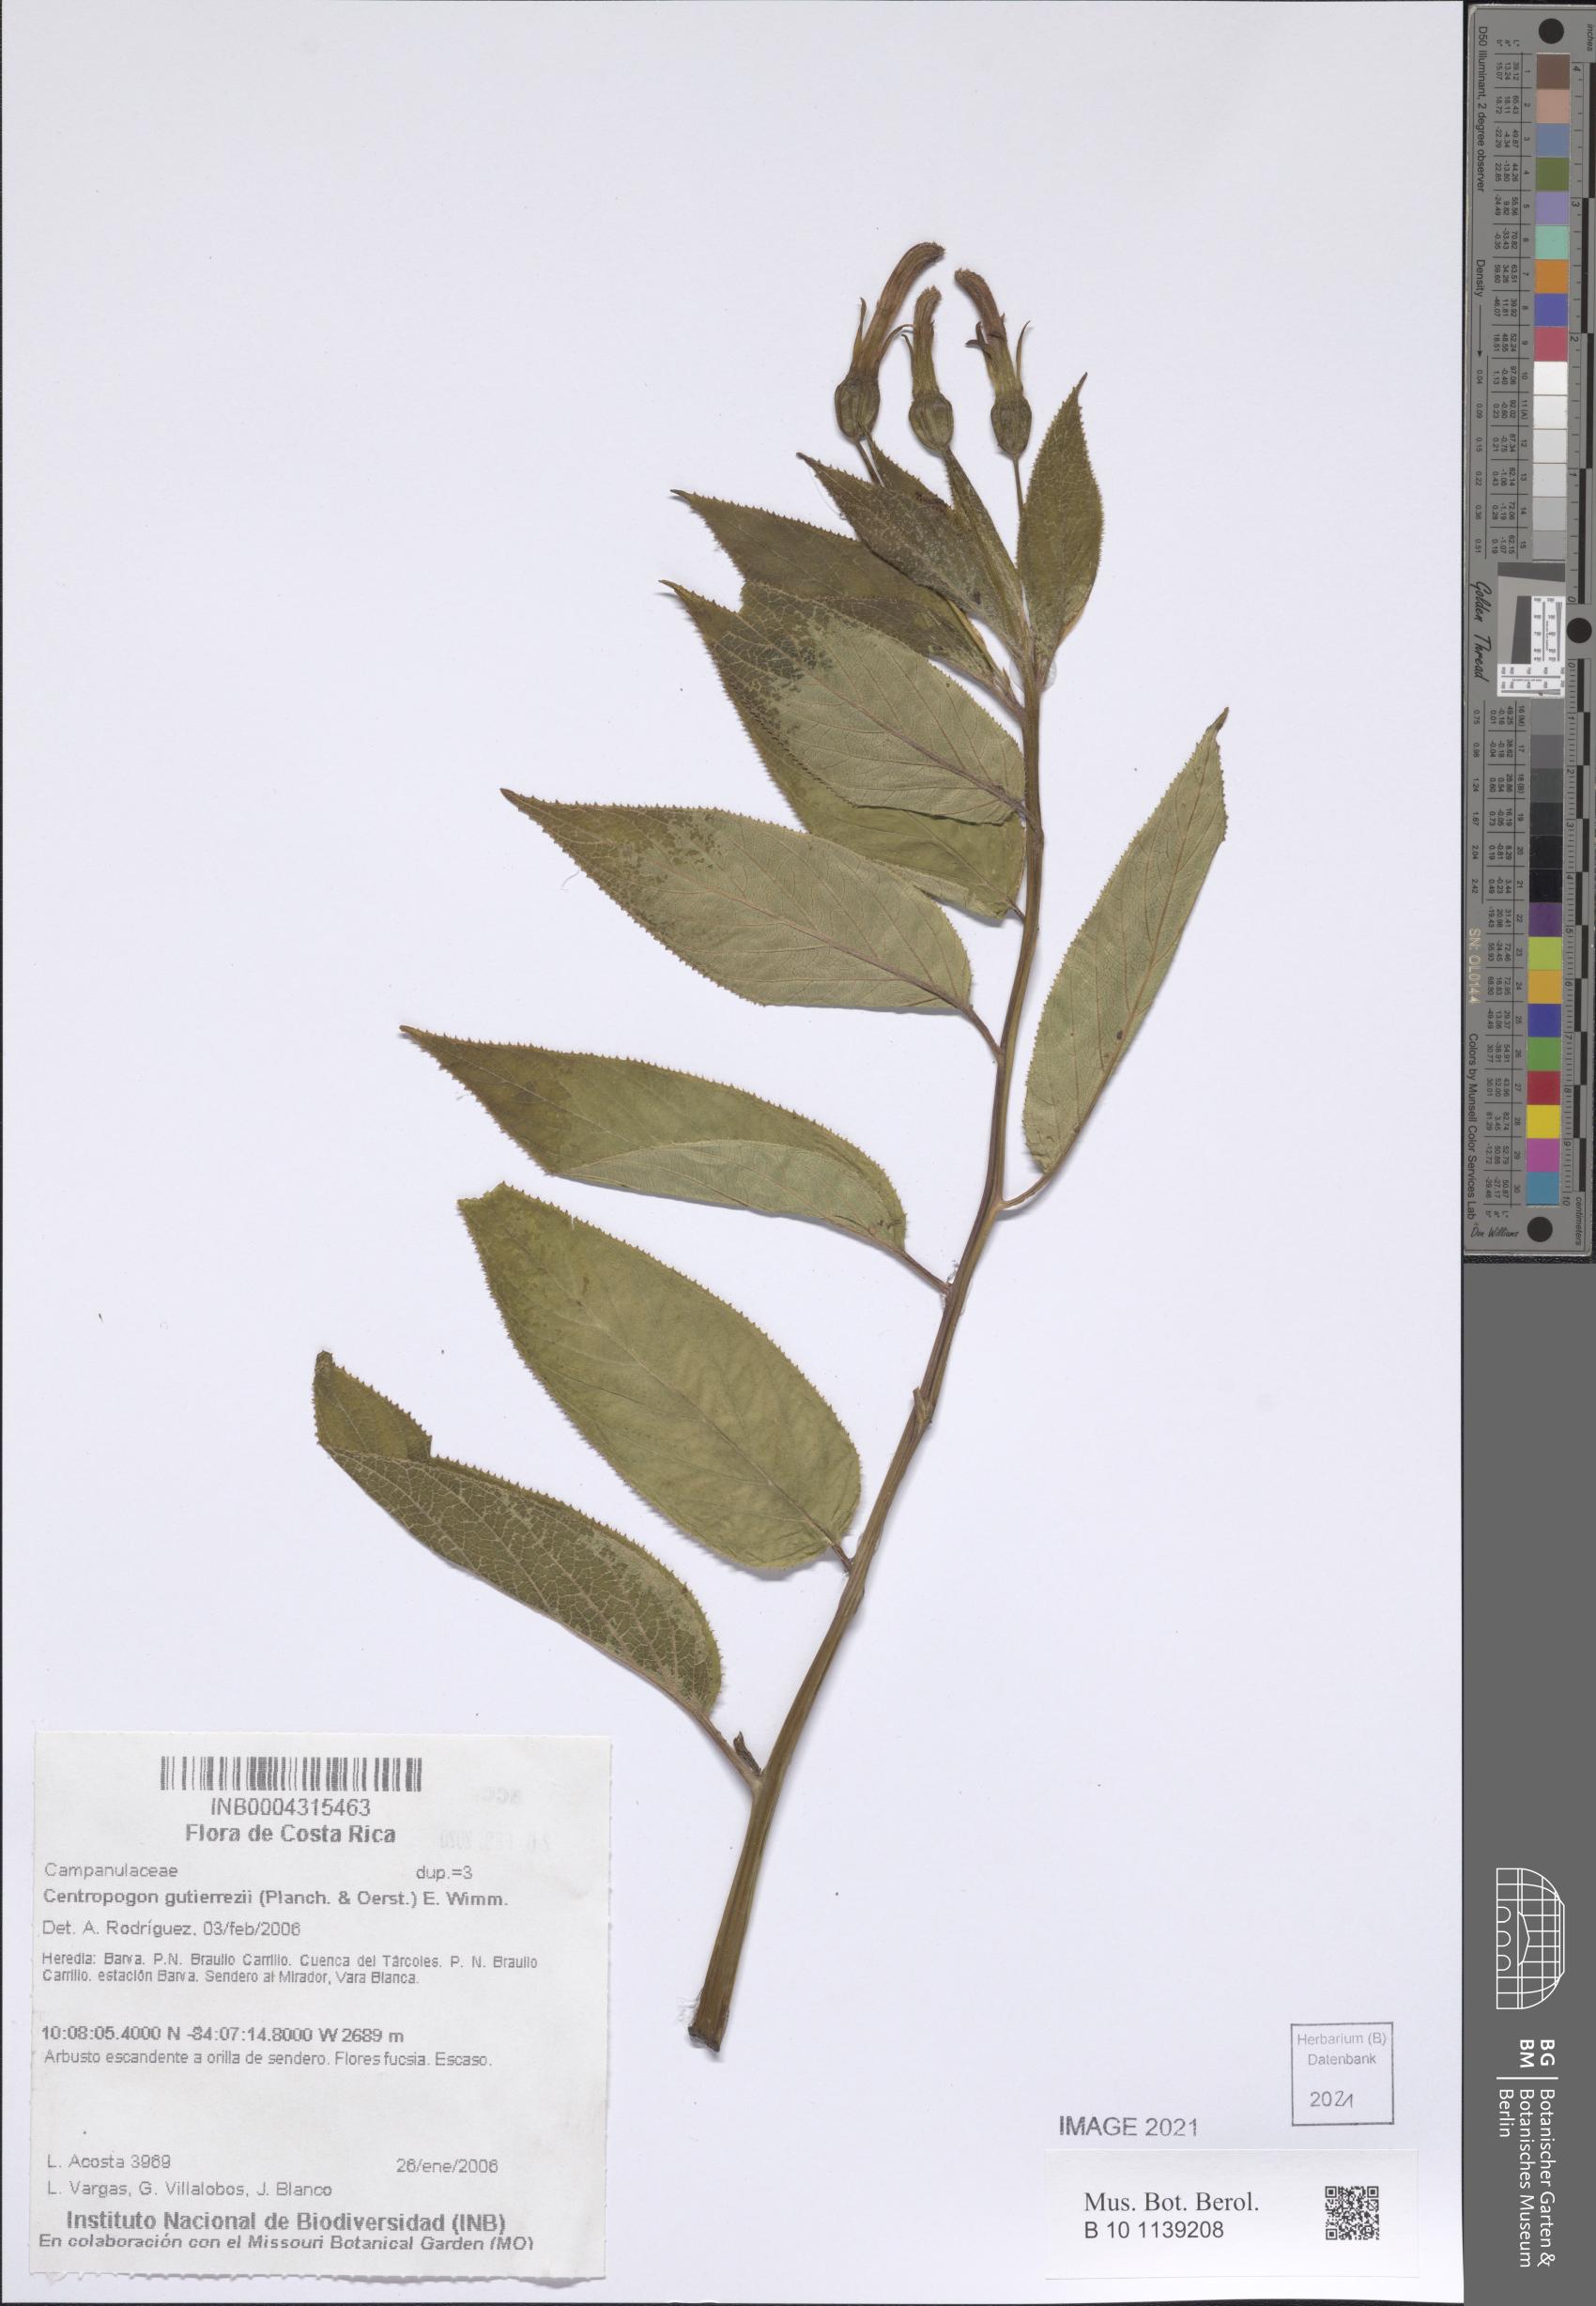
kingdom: Plantae
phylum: Tracheophyta
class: Magnoliopsida
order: Asterales
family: Campanulaceae
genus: Centropogon
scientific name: Centropogon gutierrezii
